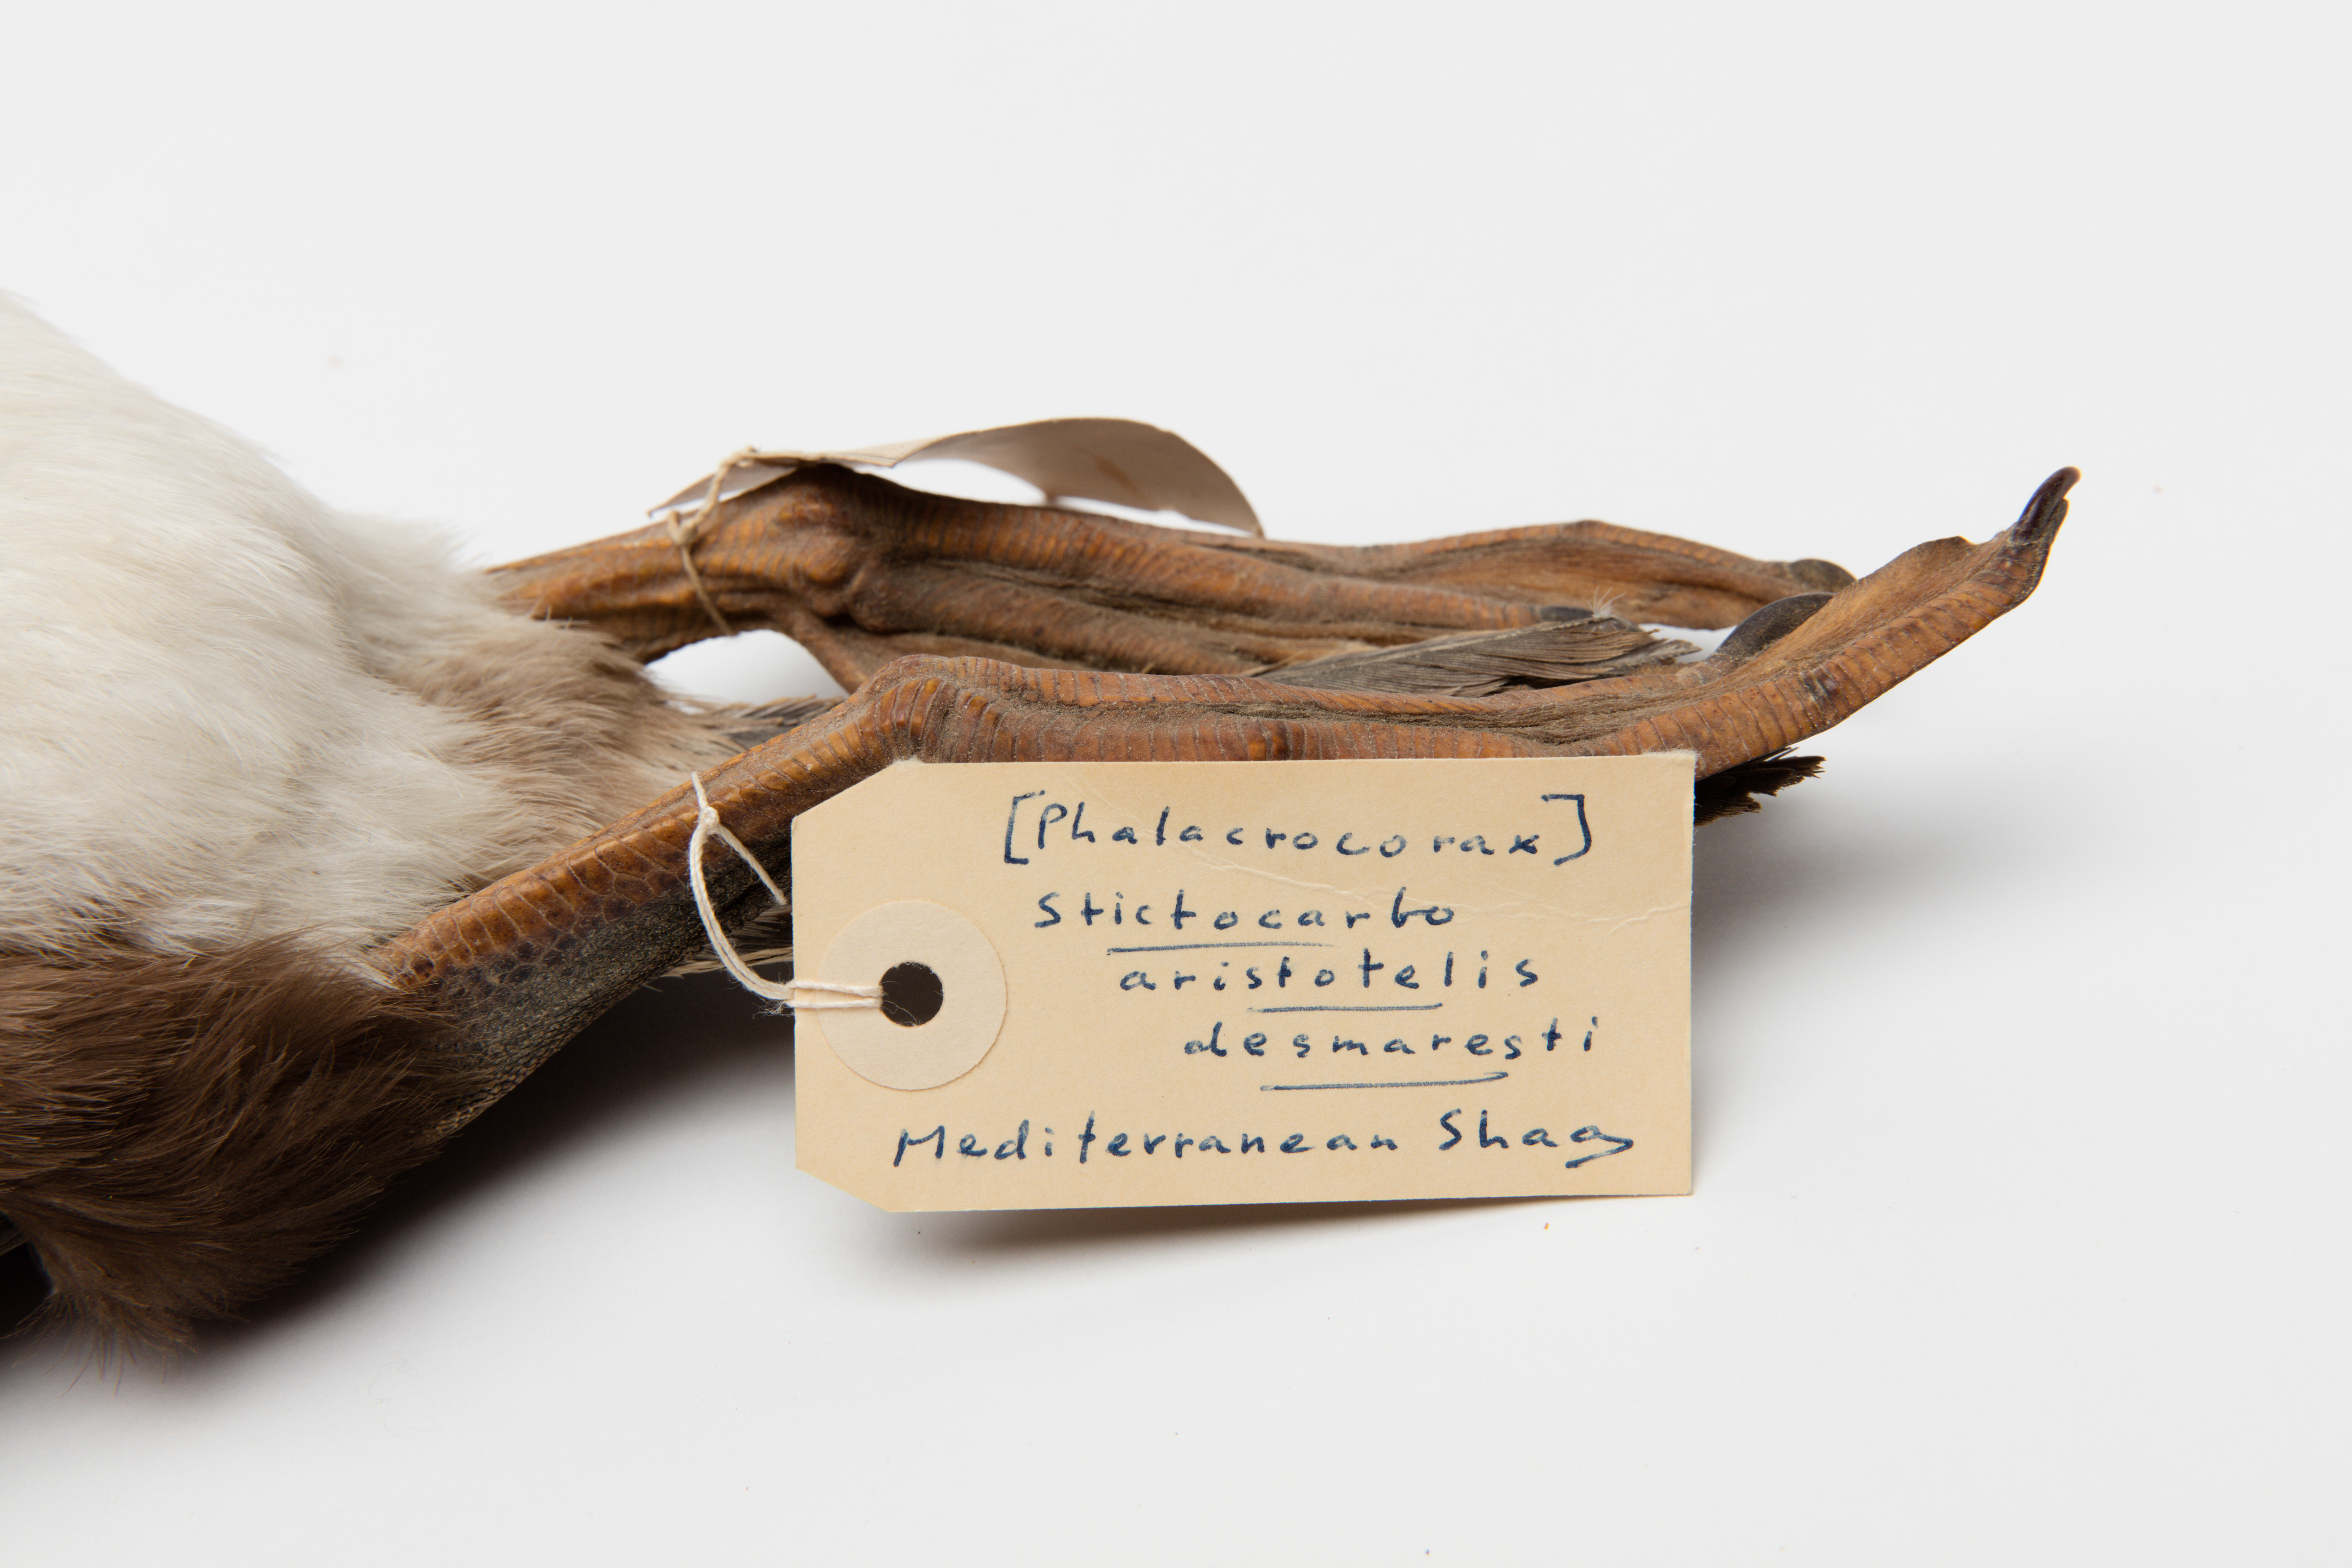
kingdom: Animalia
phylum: Chordata
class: Aves
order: Suliformes
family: Phalacrocoracidae
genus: Phalacrocorax
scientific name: Phalacrocorax aristotelis
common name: European shag
